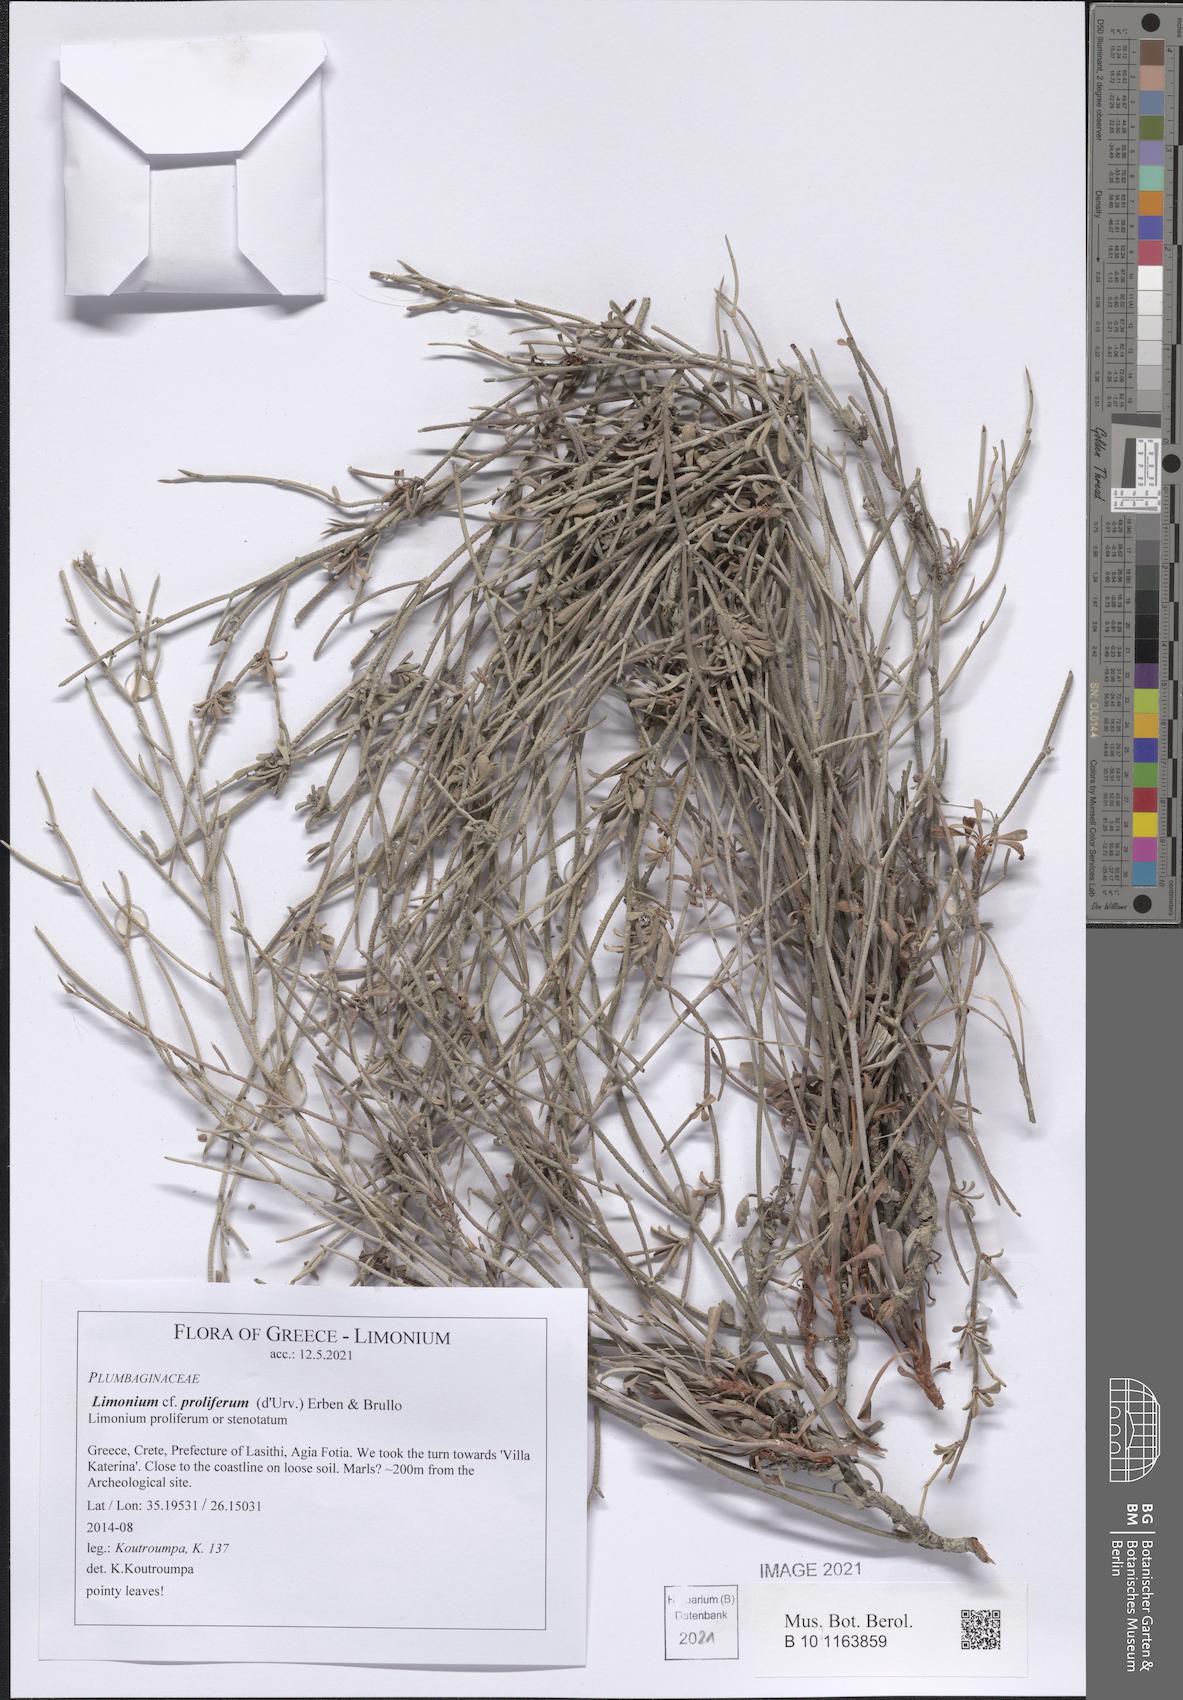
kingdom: Plantae
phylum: Tracheophyta
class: Magnoliopsida
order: Caryophyllales
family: Plumbaginaceae
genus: Limonium
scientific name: Limonium proliferum
